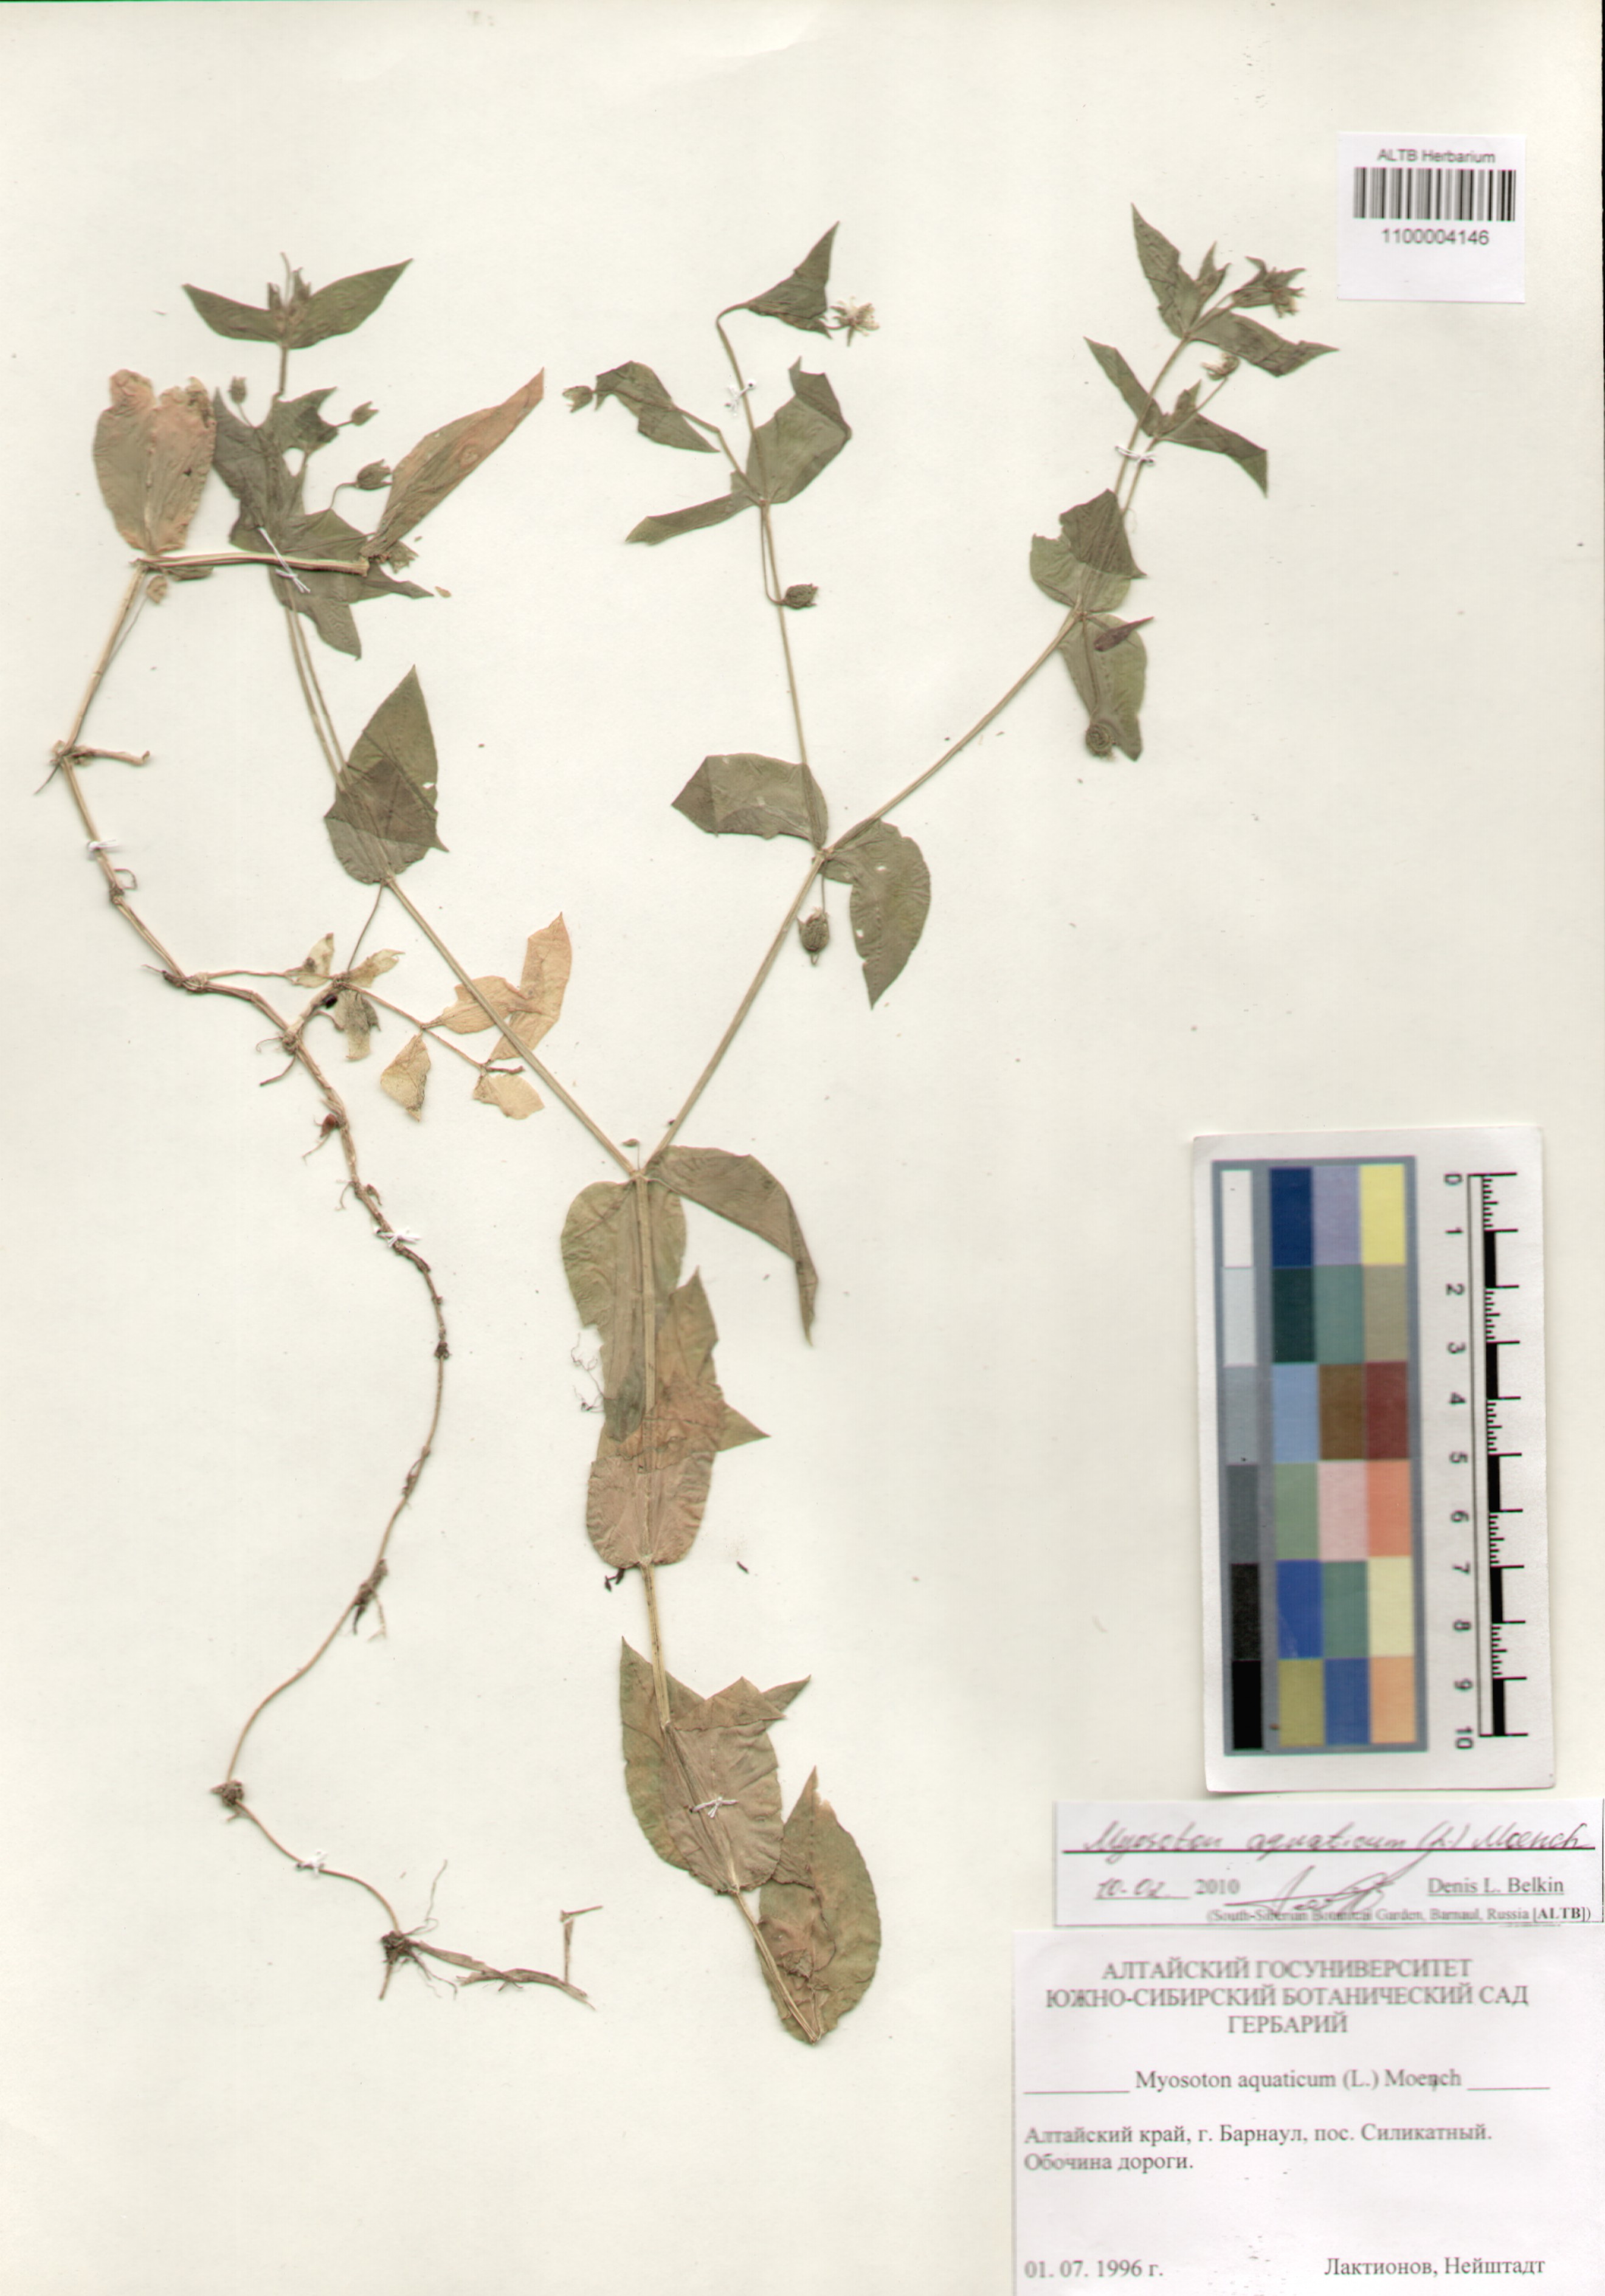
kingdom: Plantae
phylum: Tracheophyta
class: Magnoliopsida
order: Caryophyllales
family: Caryophyllaceae
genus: Stellaria
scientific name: Stellaria aquatica
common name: Water chickweed
